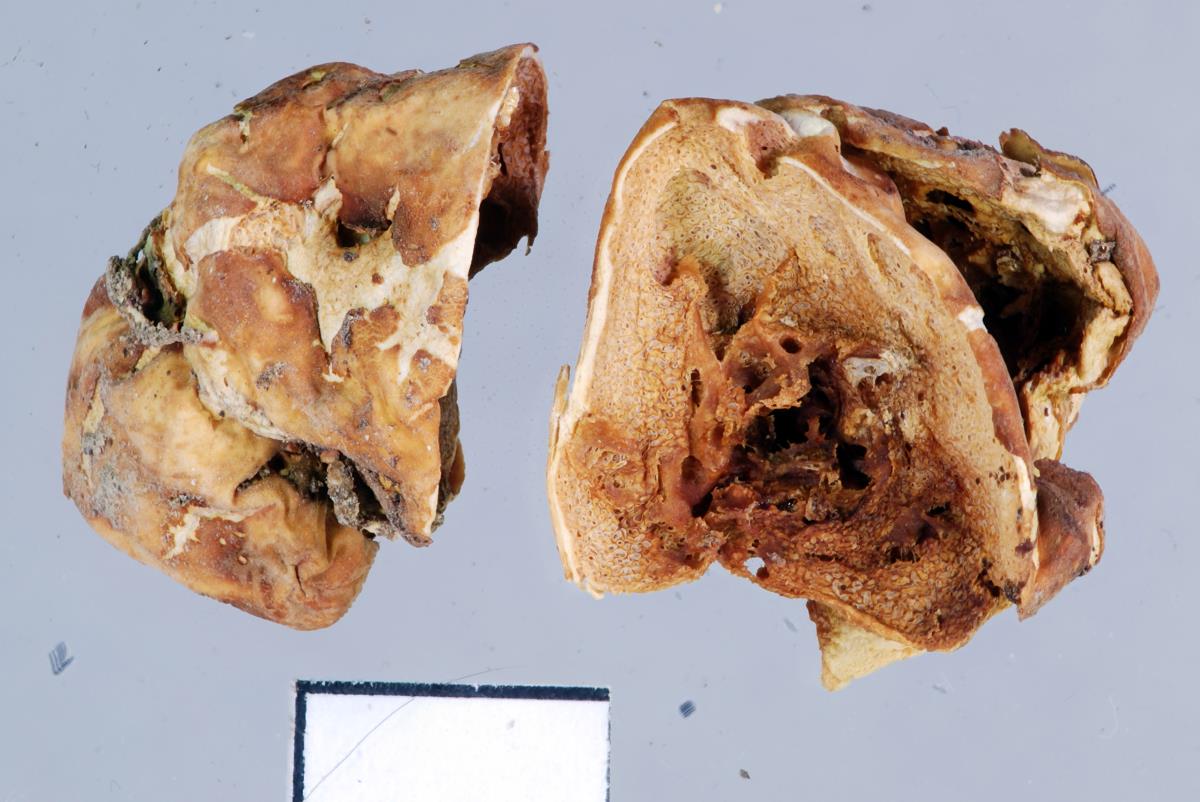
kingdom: Fungi
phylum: Basidiomycota
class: Agaricomycetes
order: Russulales
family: Russulaceae
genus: Russula
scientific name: Russula parvisaxoides
